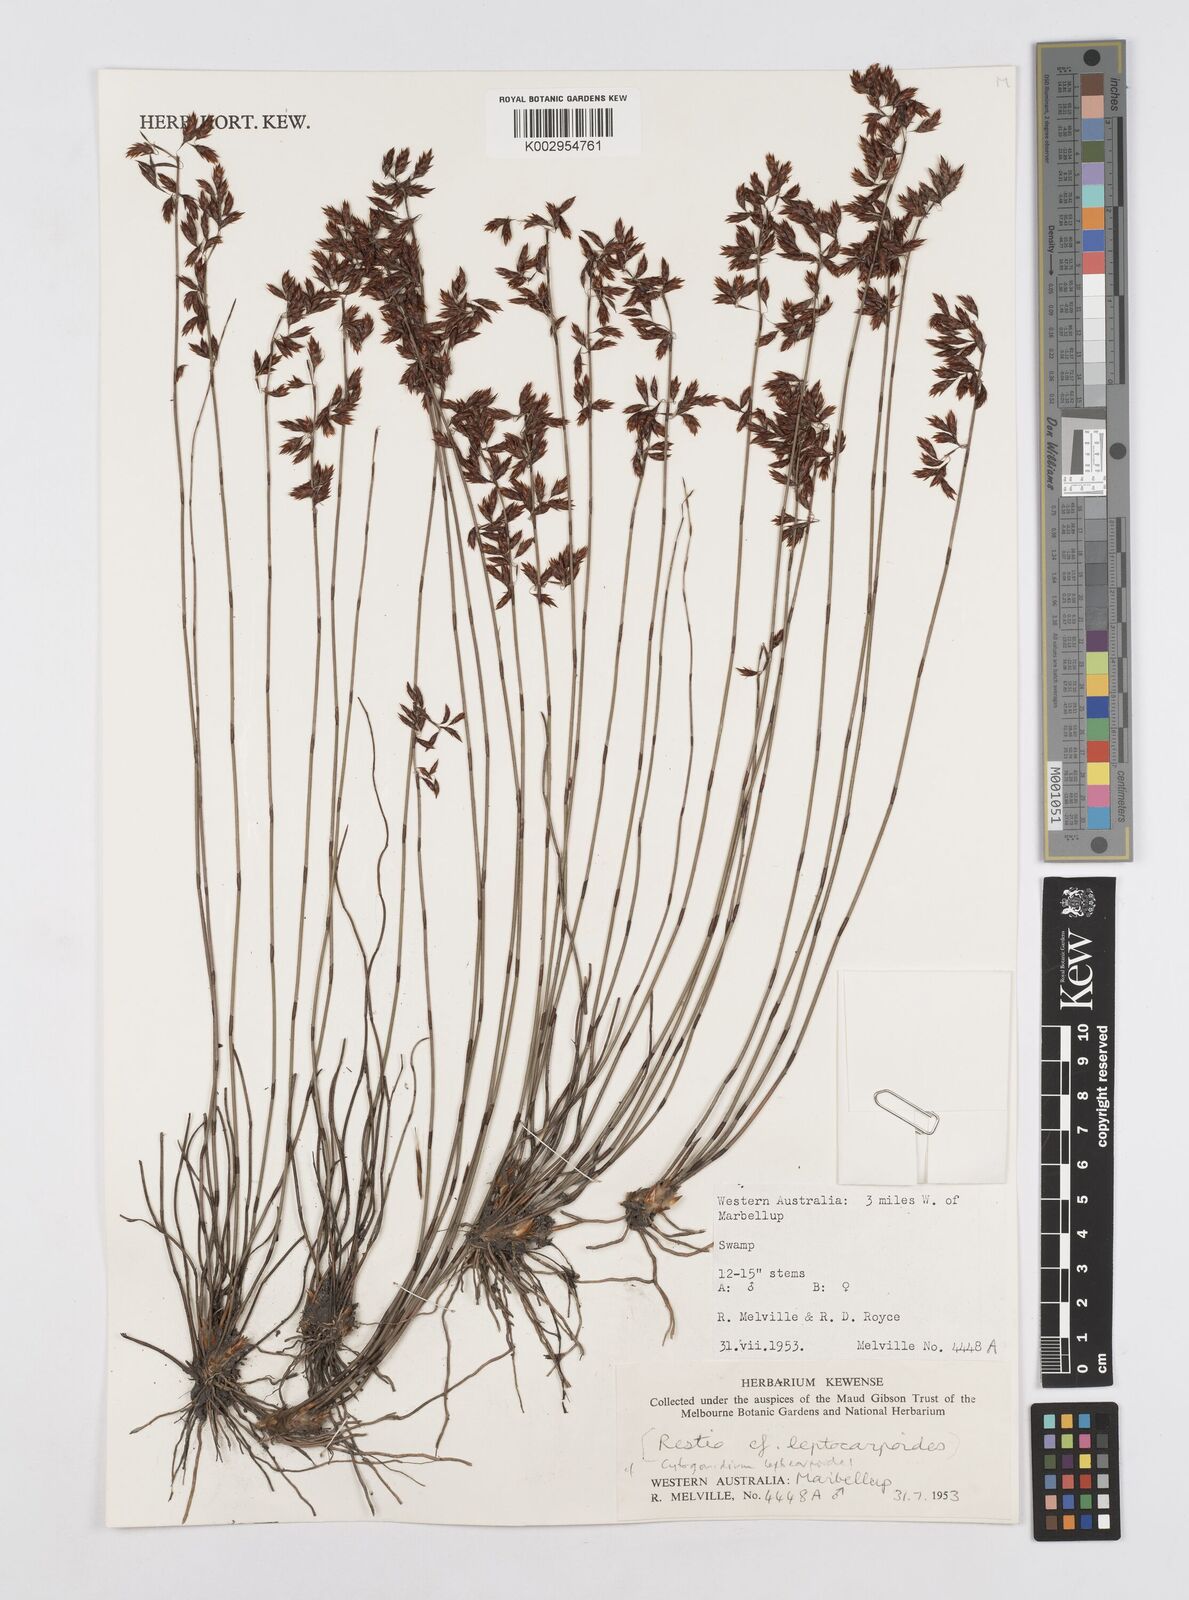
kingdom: Plantae
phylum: Tracheophyta
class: Liliopsida
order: Poales
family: Restionaceae
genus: Cytogonidium
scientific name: Cytogonidium leptocarpoides
